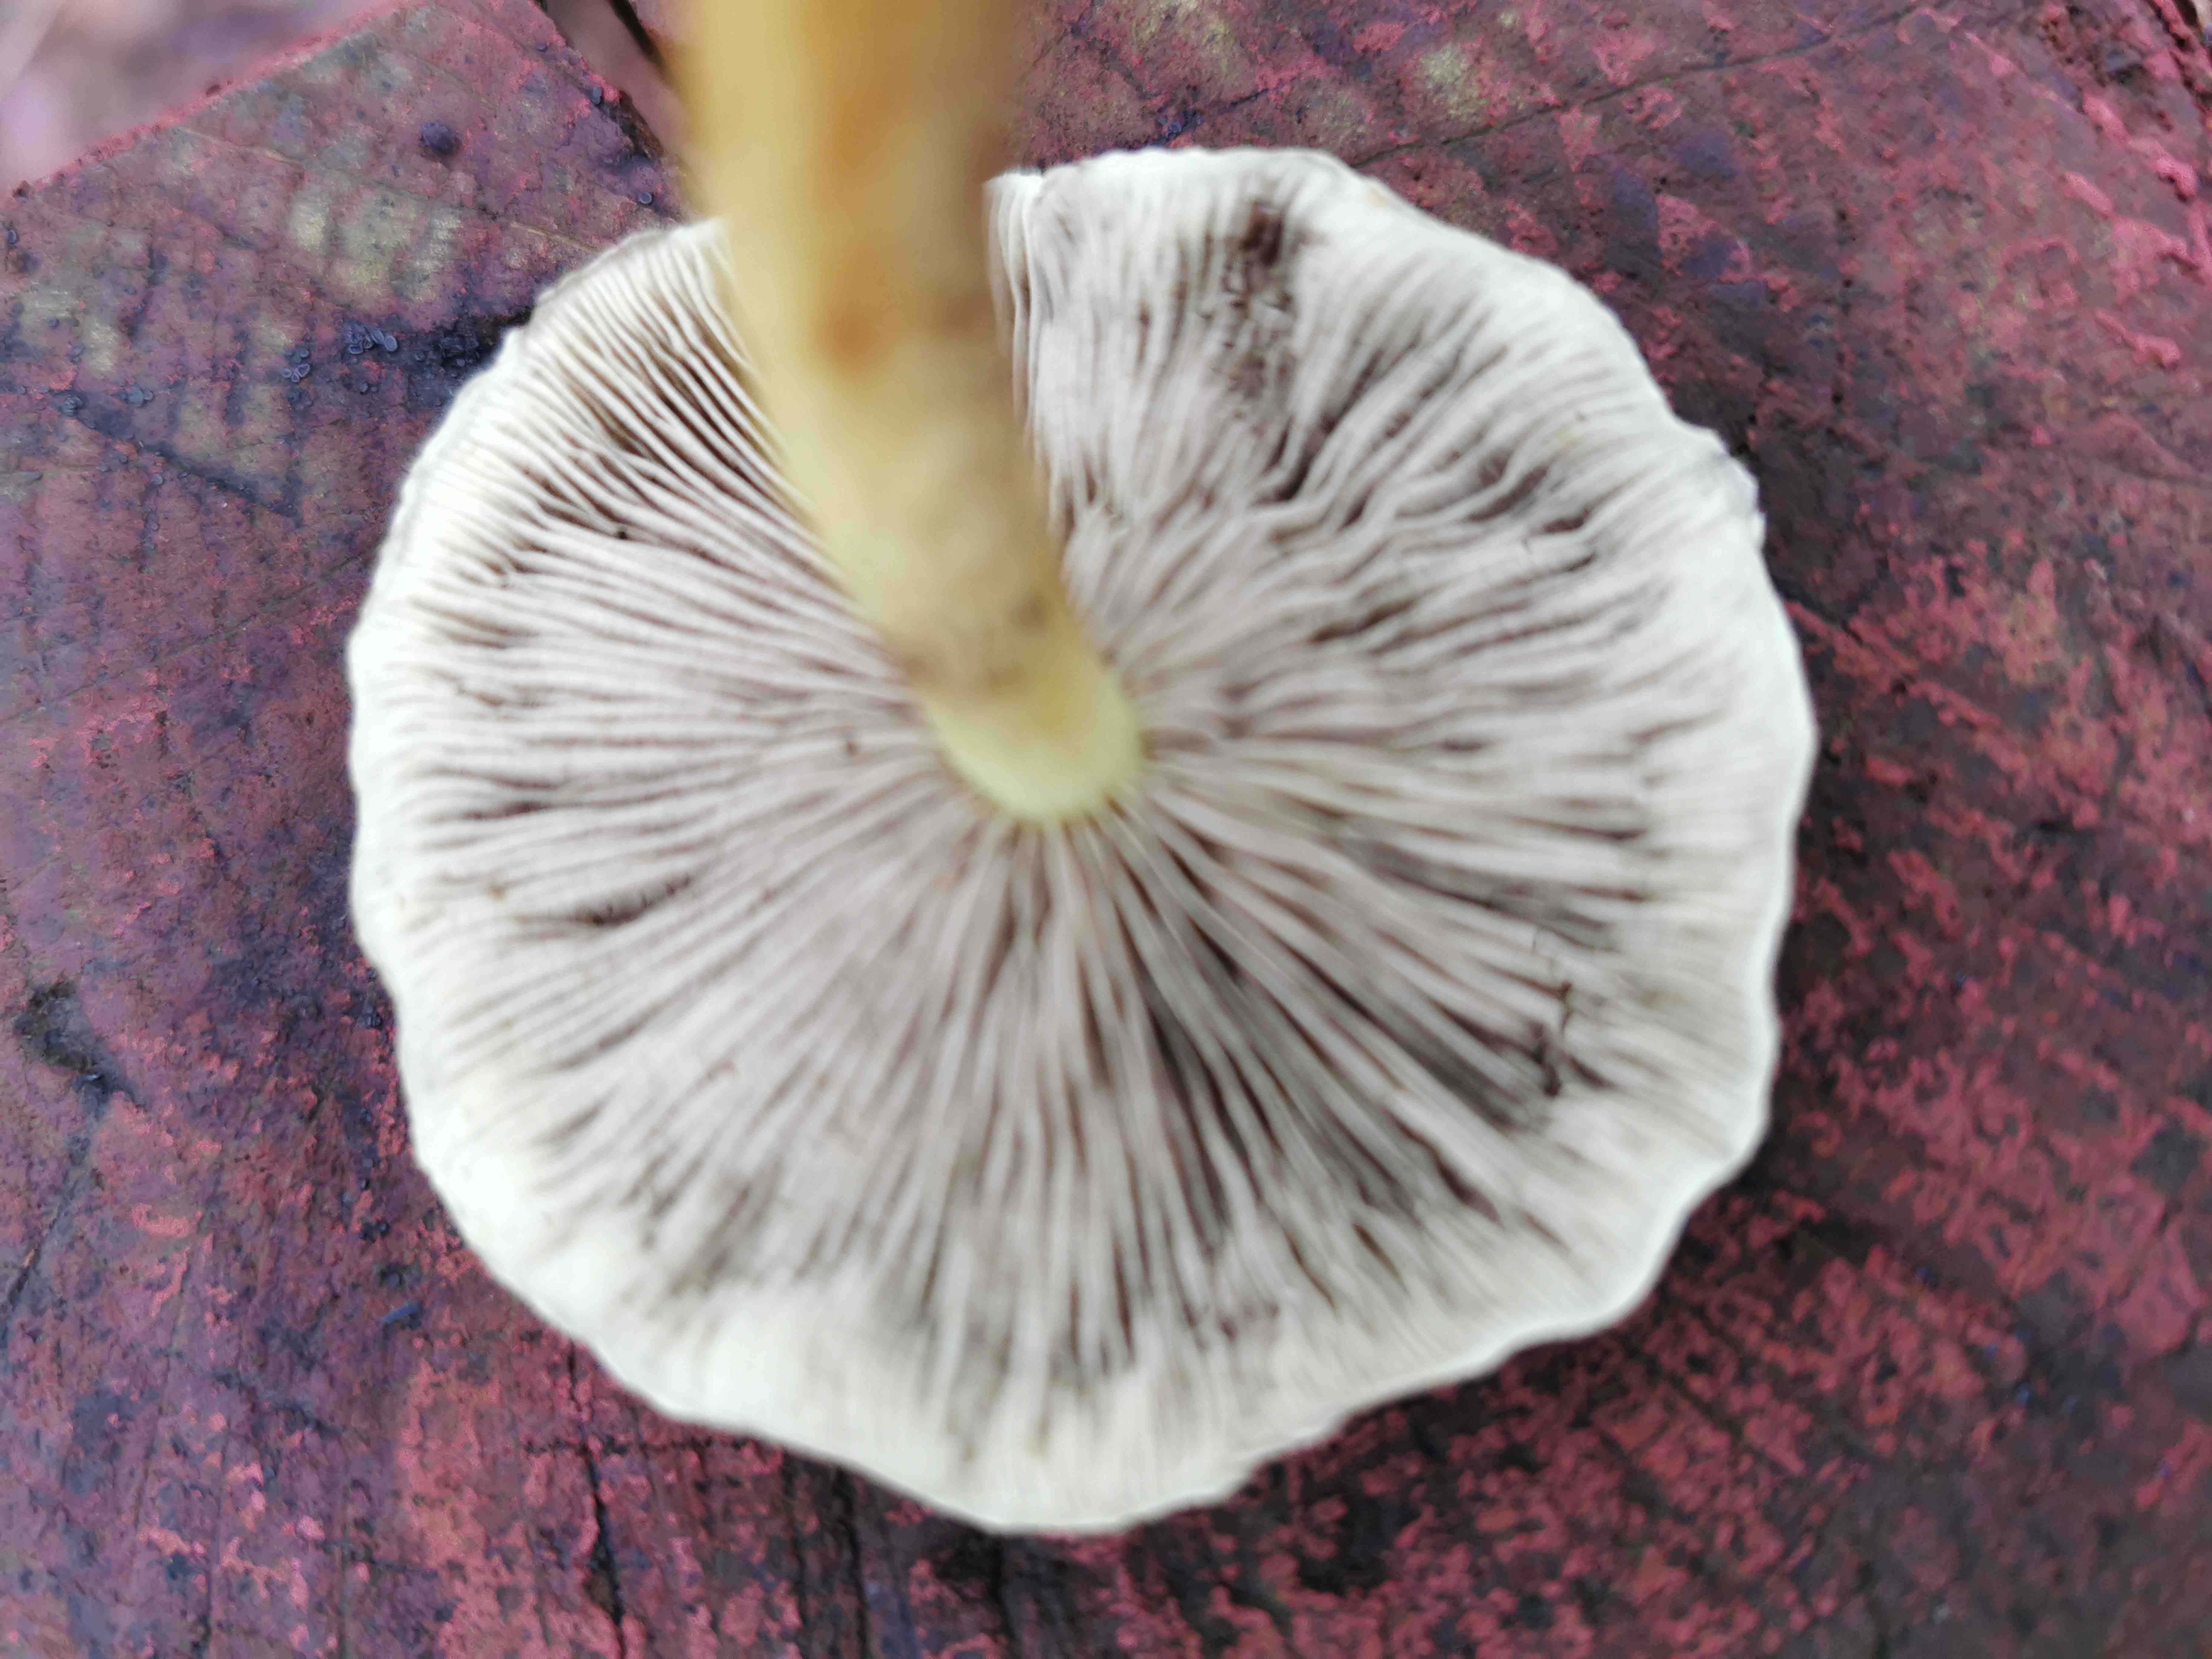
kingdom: Fungi
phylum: Basidiomycota
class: Agaricomycetes
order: Agaricales
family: Strophariaceae
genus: Hypholoma
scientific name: Hypholoma fasciculare
